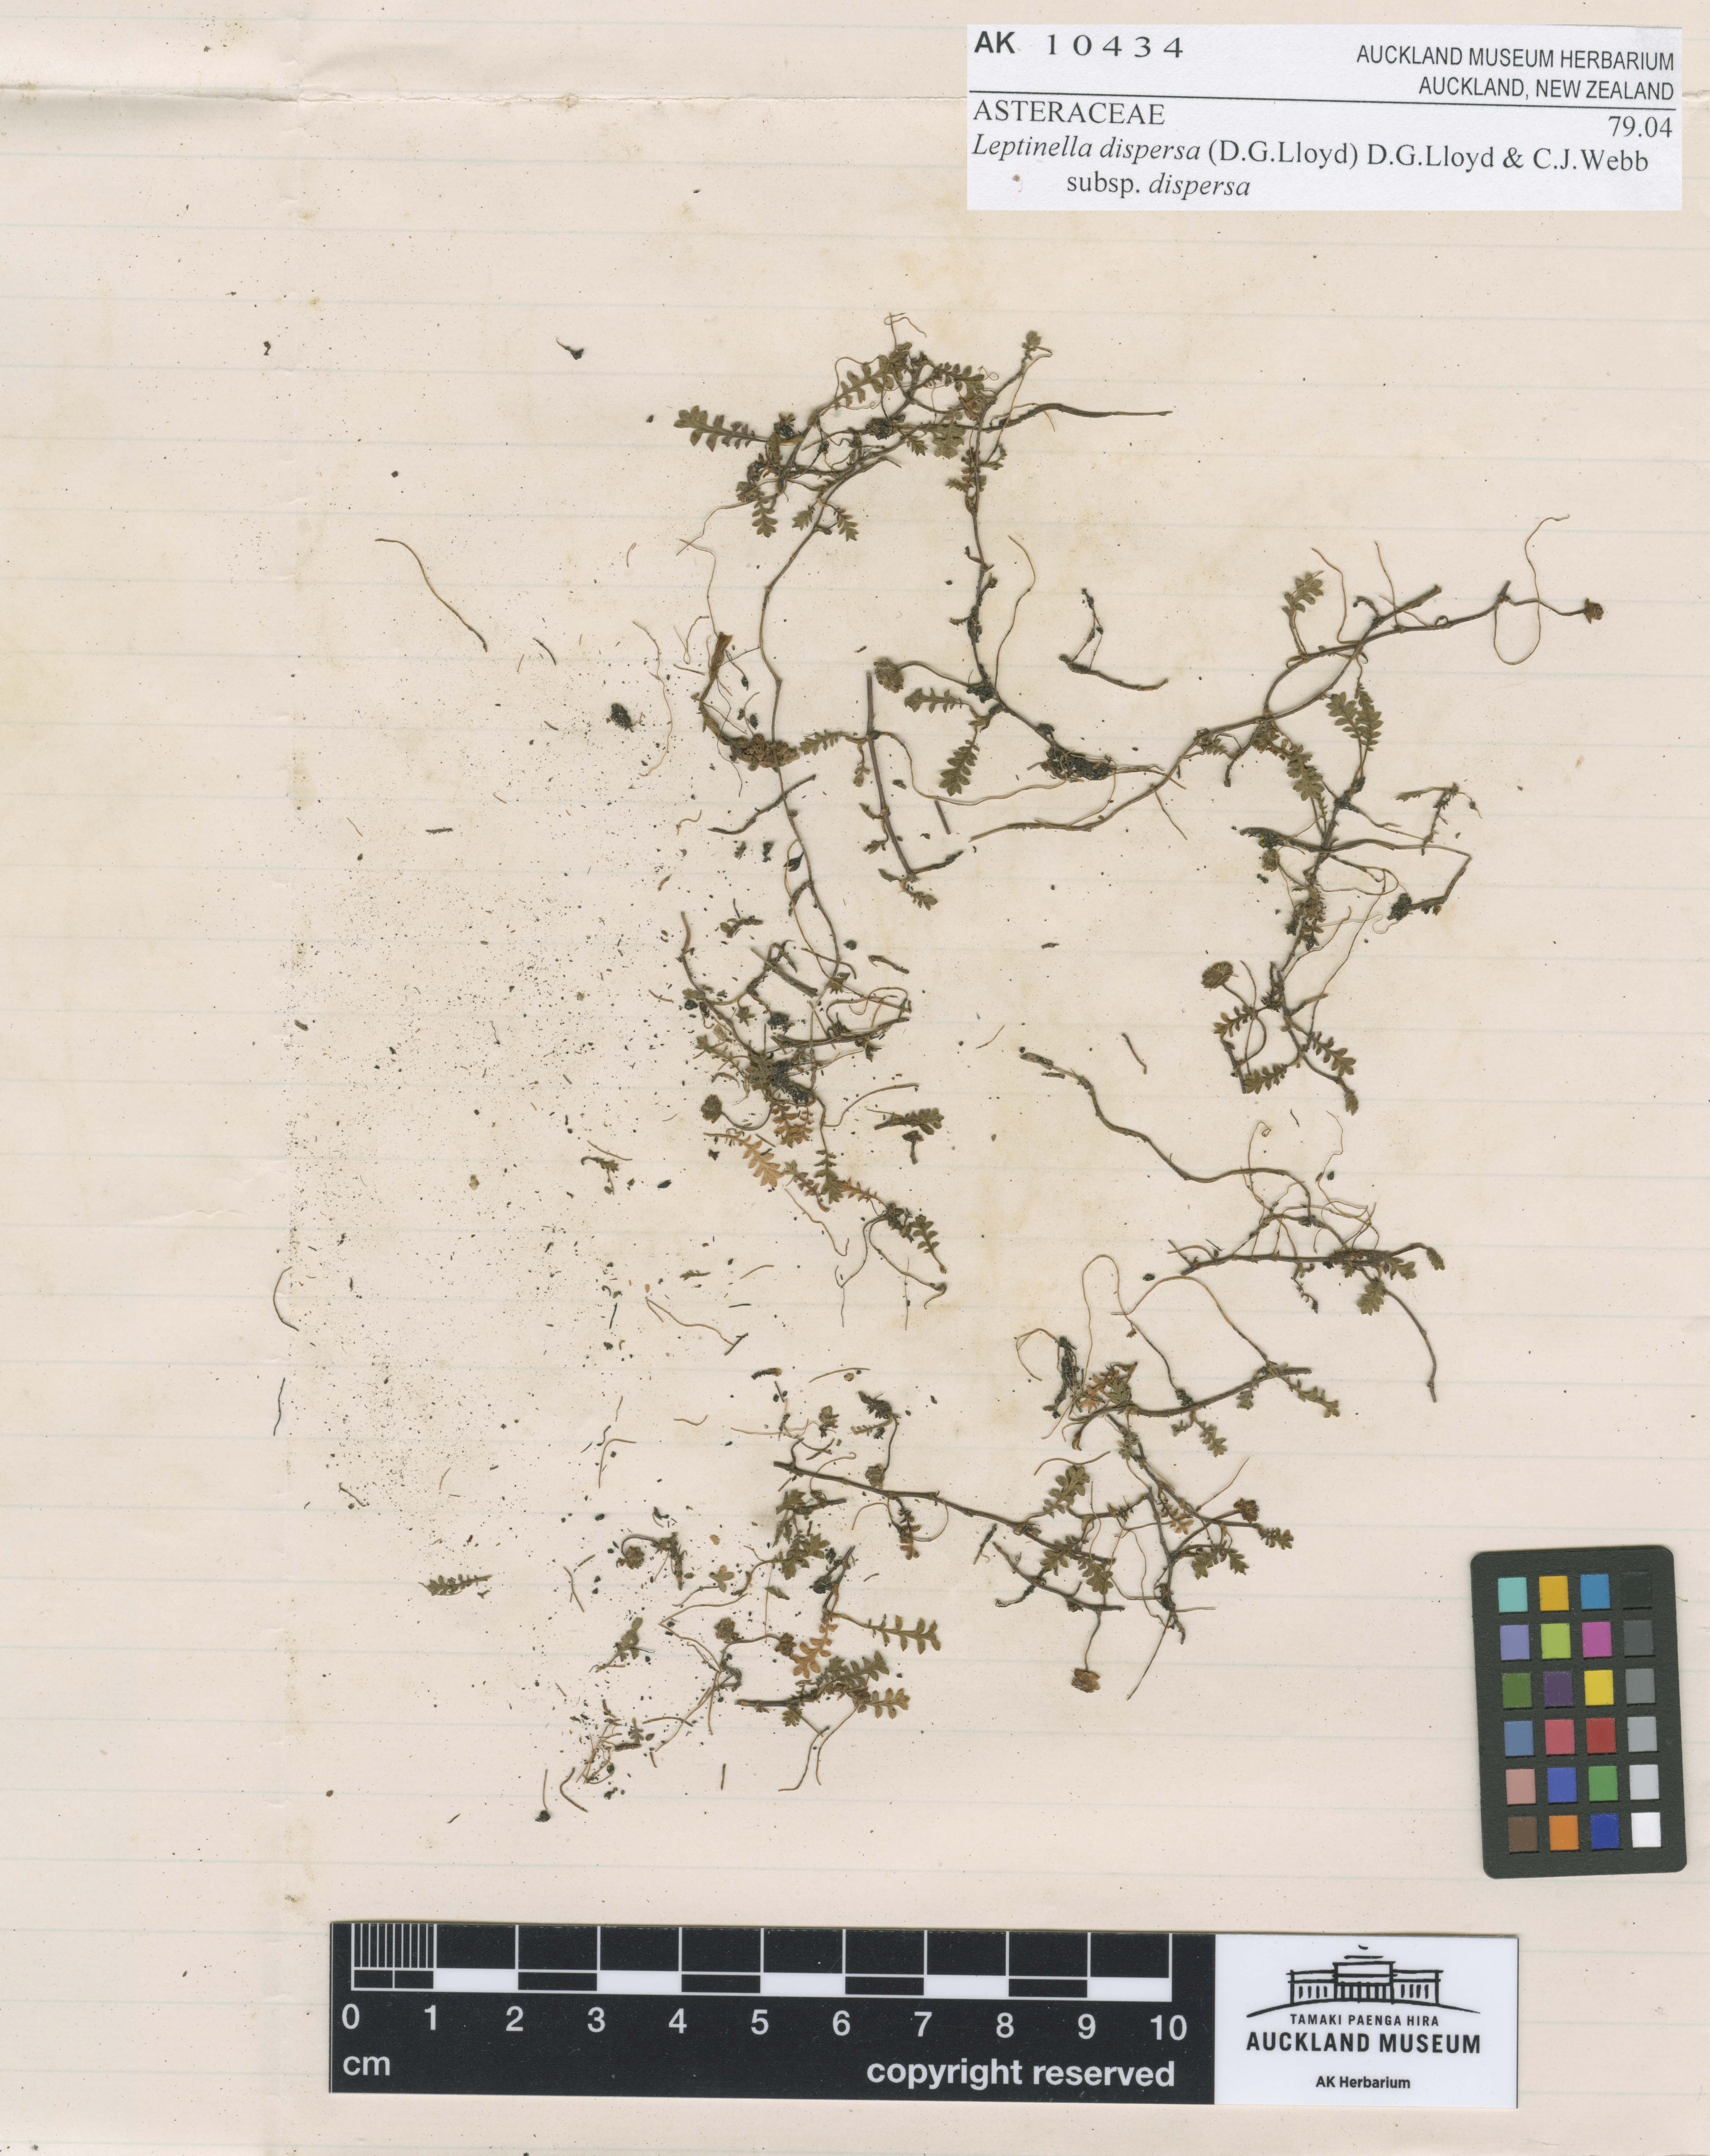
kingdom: Plantae
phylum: Tracheophyta
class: Magnoliopsida
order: Asterales
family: Asteraceae
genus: Leptinella
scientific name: Leptinella dispersa
